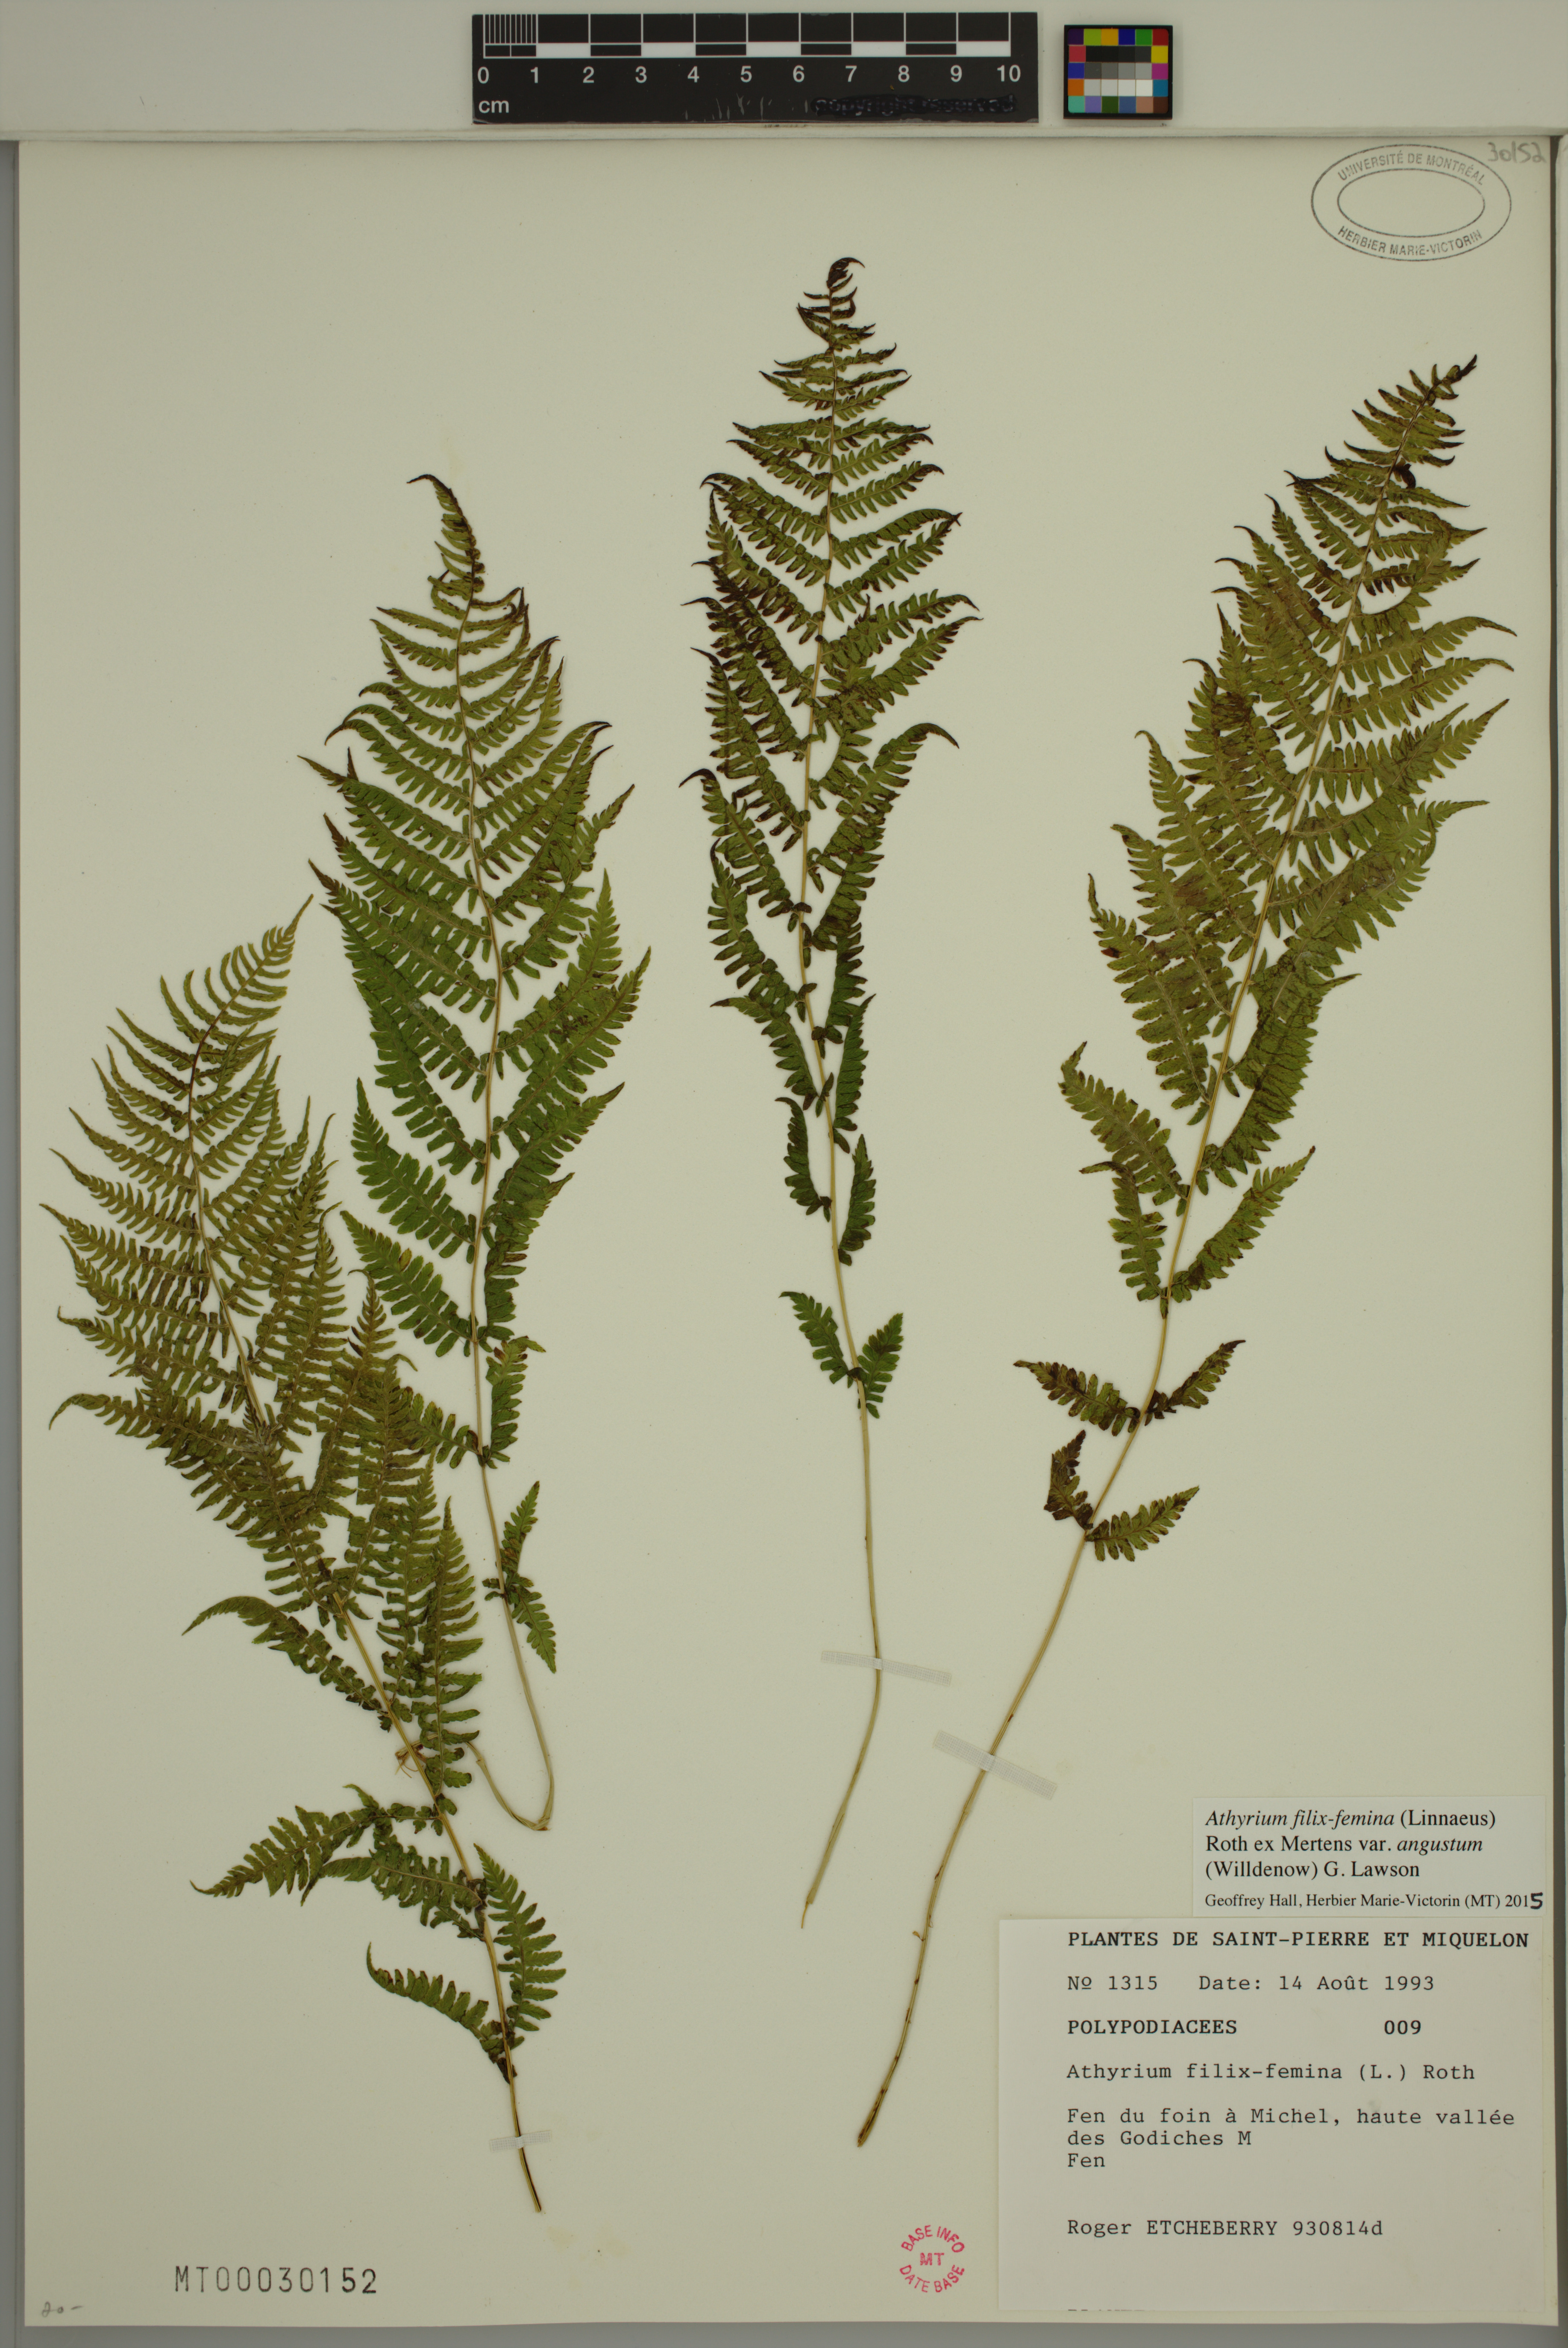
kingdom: Plantae
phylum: Tracheophyta
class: Polypodiopsida
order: Polypodiales
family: Athyriaceae
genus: Athyrium
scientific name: Athyrium angustum
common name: Northern lady fern
